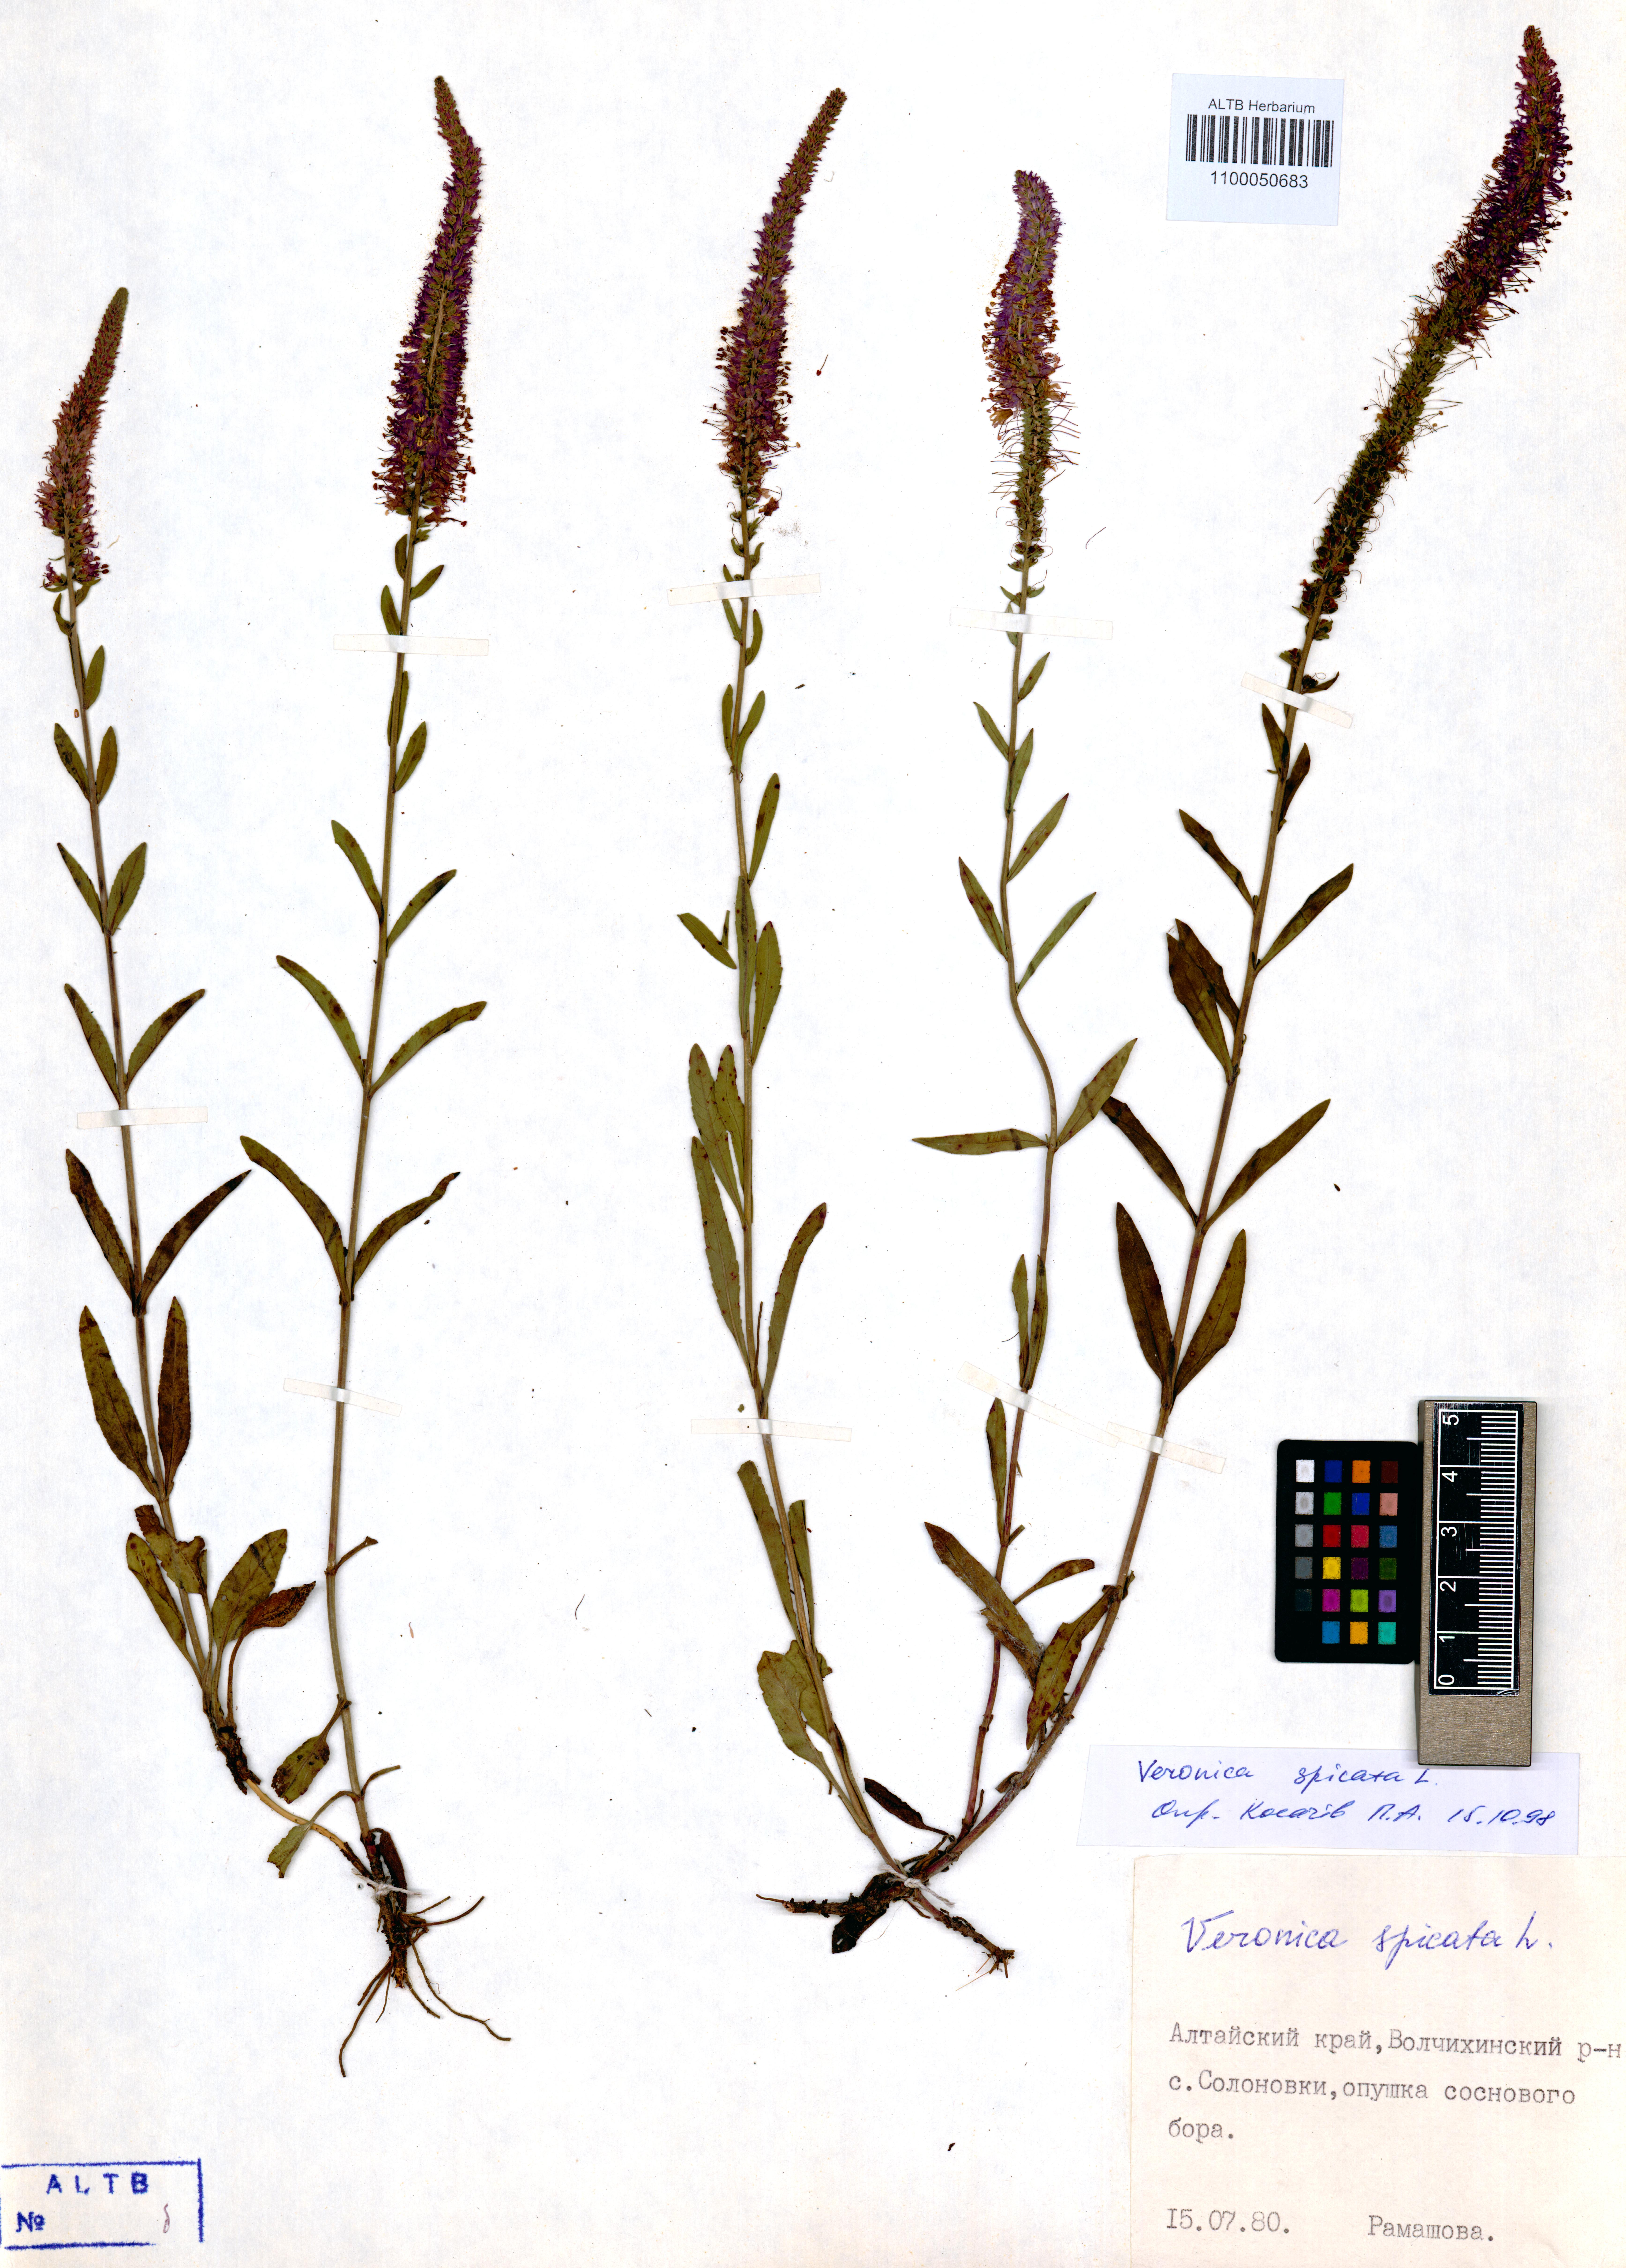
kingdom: Plantae
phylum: Tracheophyta
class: Magnoliopsida
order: Lamiales
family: Plantaginaceae
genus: Veronica
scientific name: Veronica spicata
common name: Spiked speedwell
